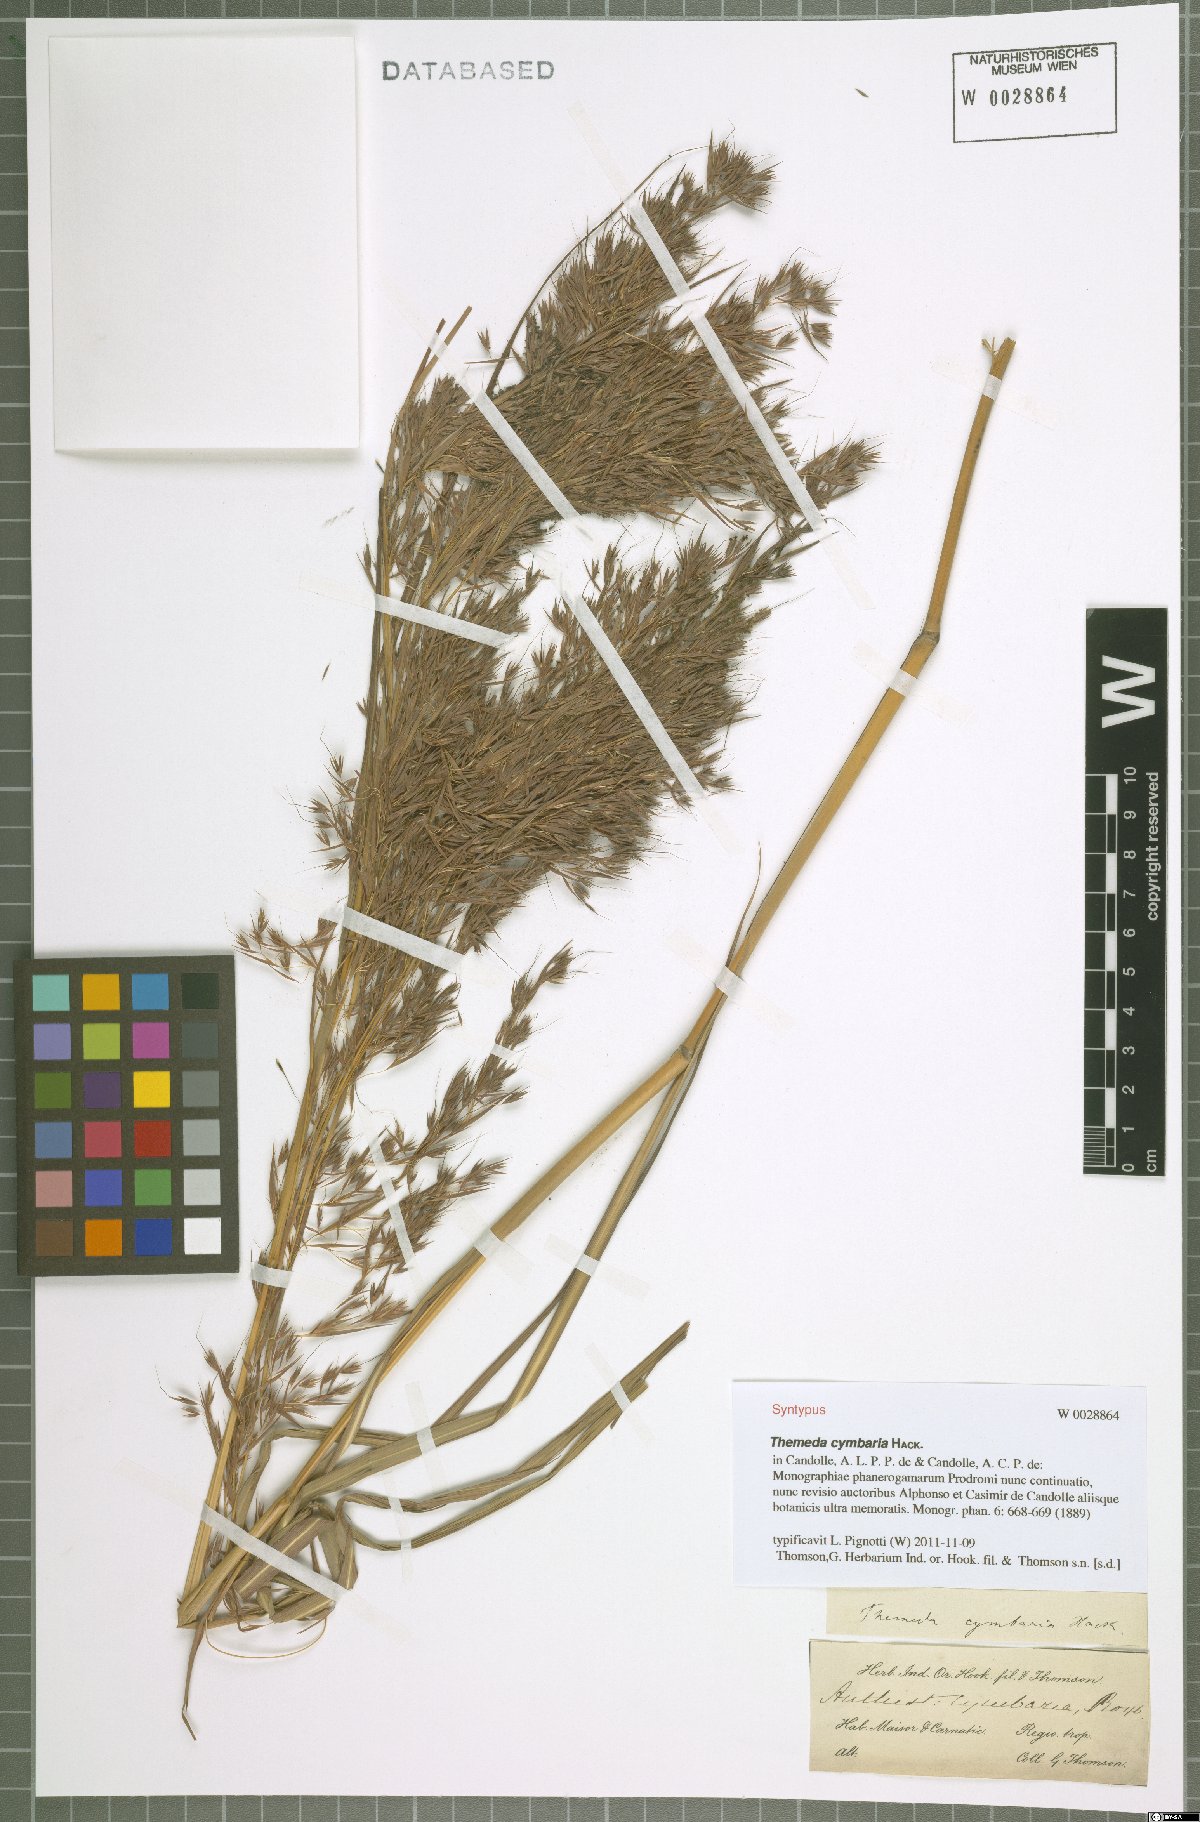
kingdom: Plantae
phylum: Tracheophyta
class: Liliopsida
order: Poales
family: Poaceae
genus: Themeda
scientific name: Themeda cymbaria
